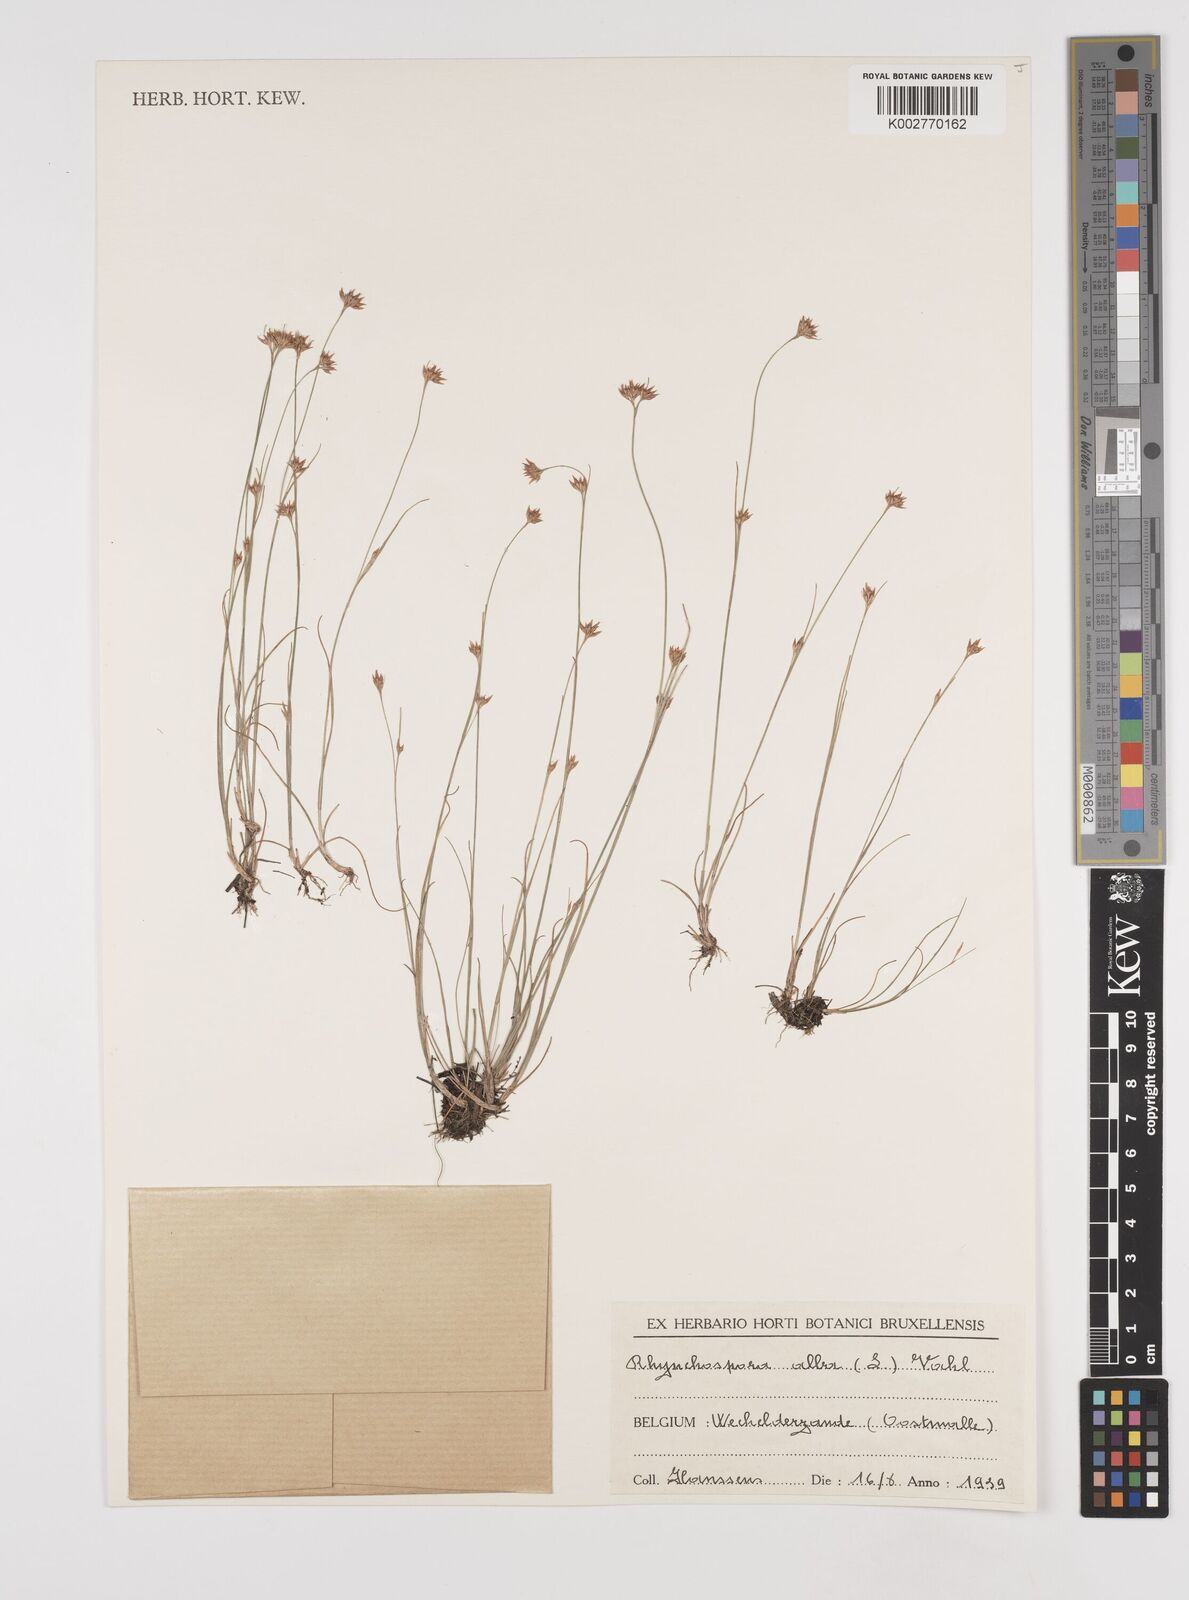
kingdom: Plantae
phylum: Tracheophyta
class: Liliopsida
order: Poales
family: Cyperaceae
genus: Rhynchospora
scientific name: Rhynchospora alba
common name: White beak-sedge
